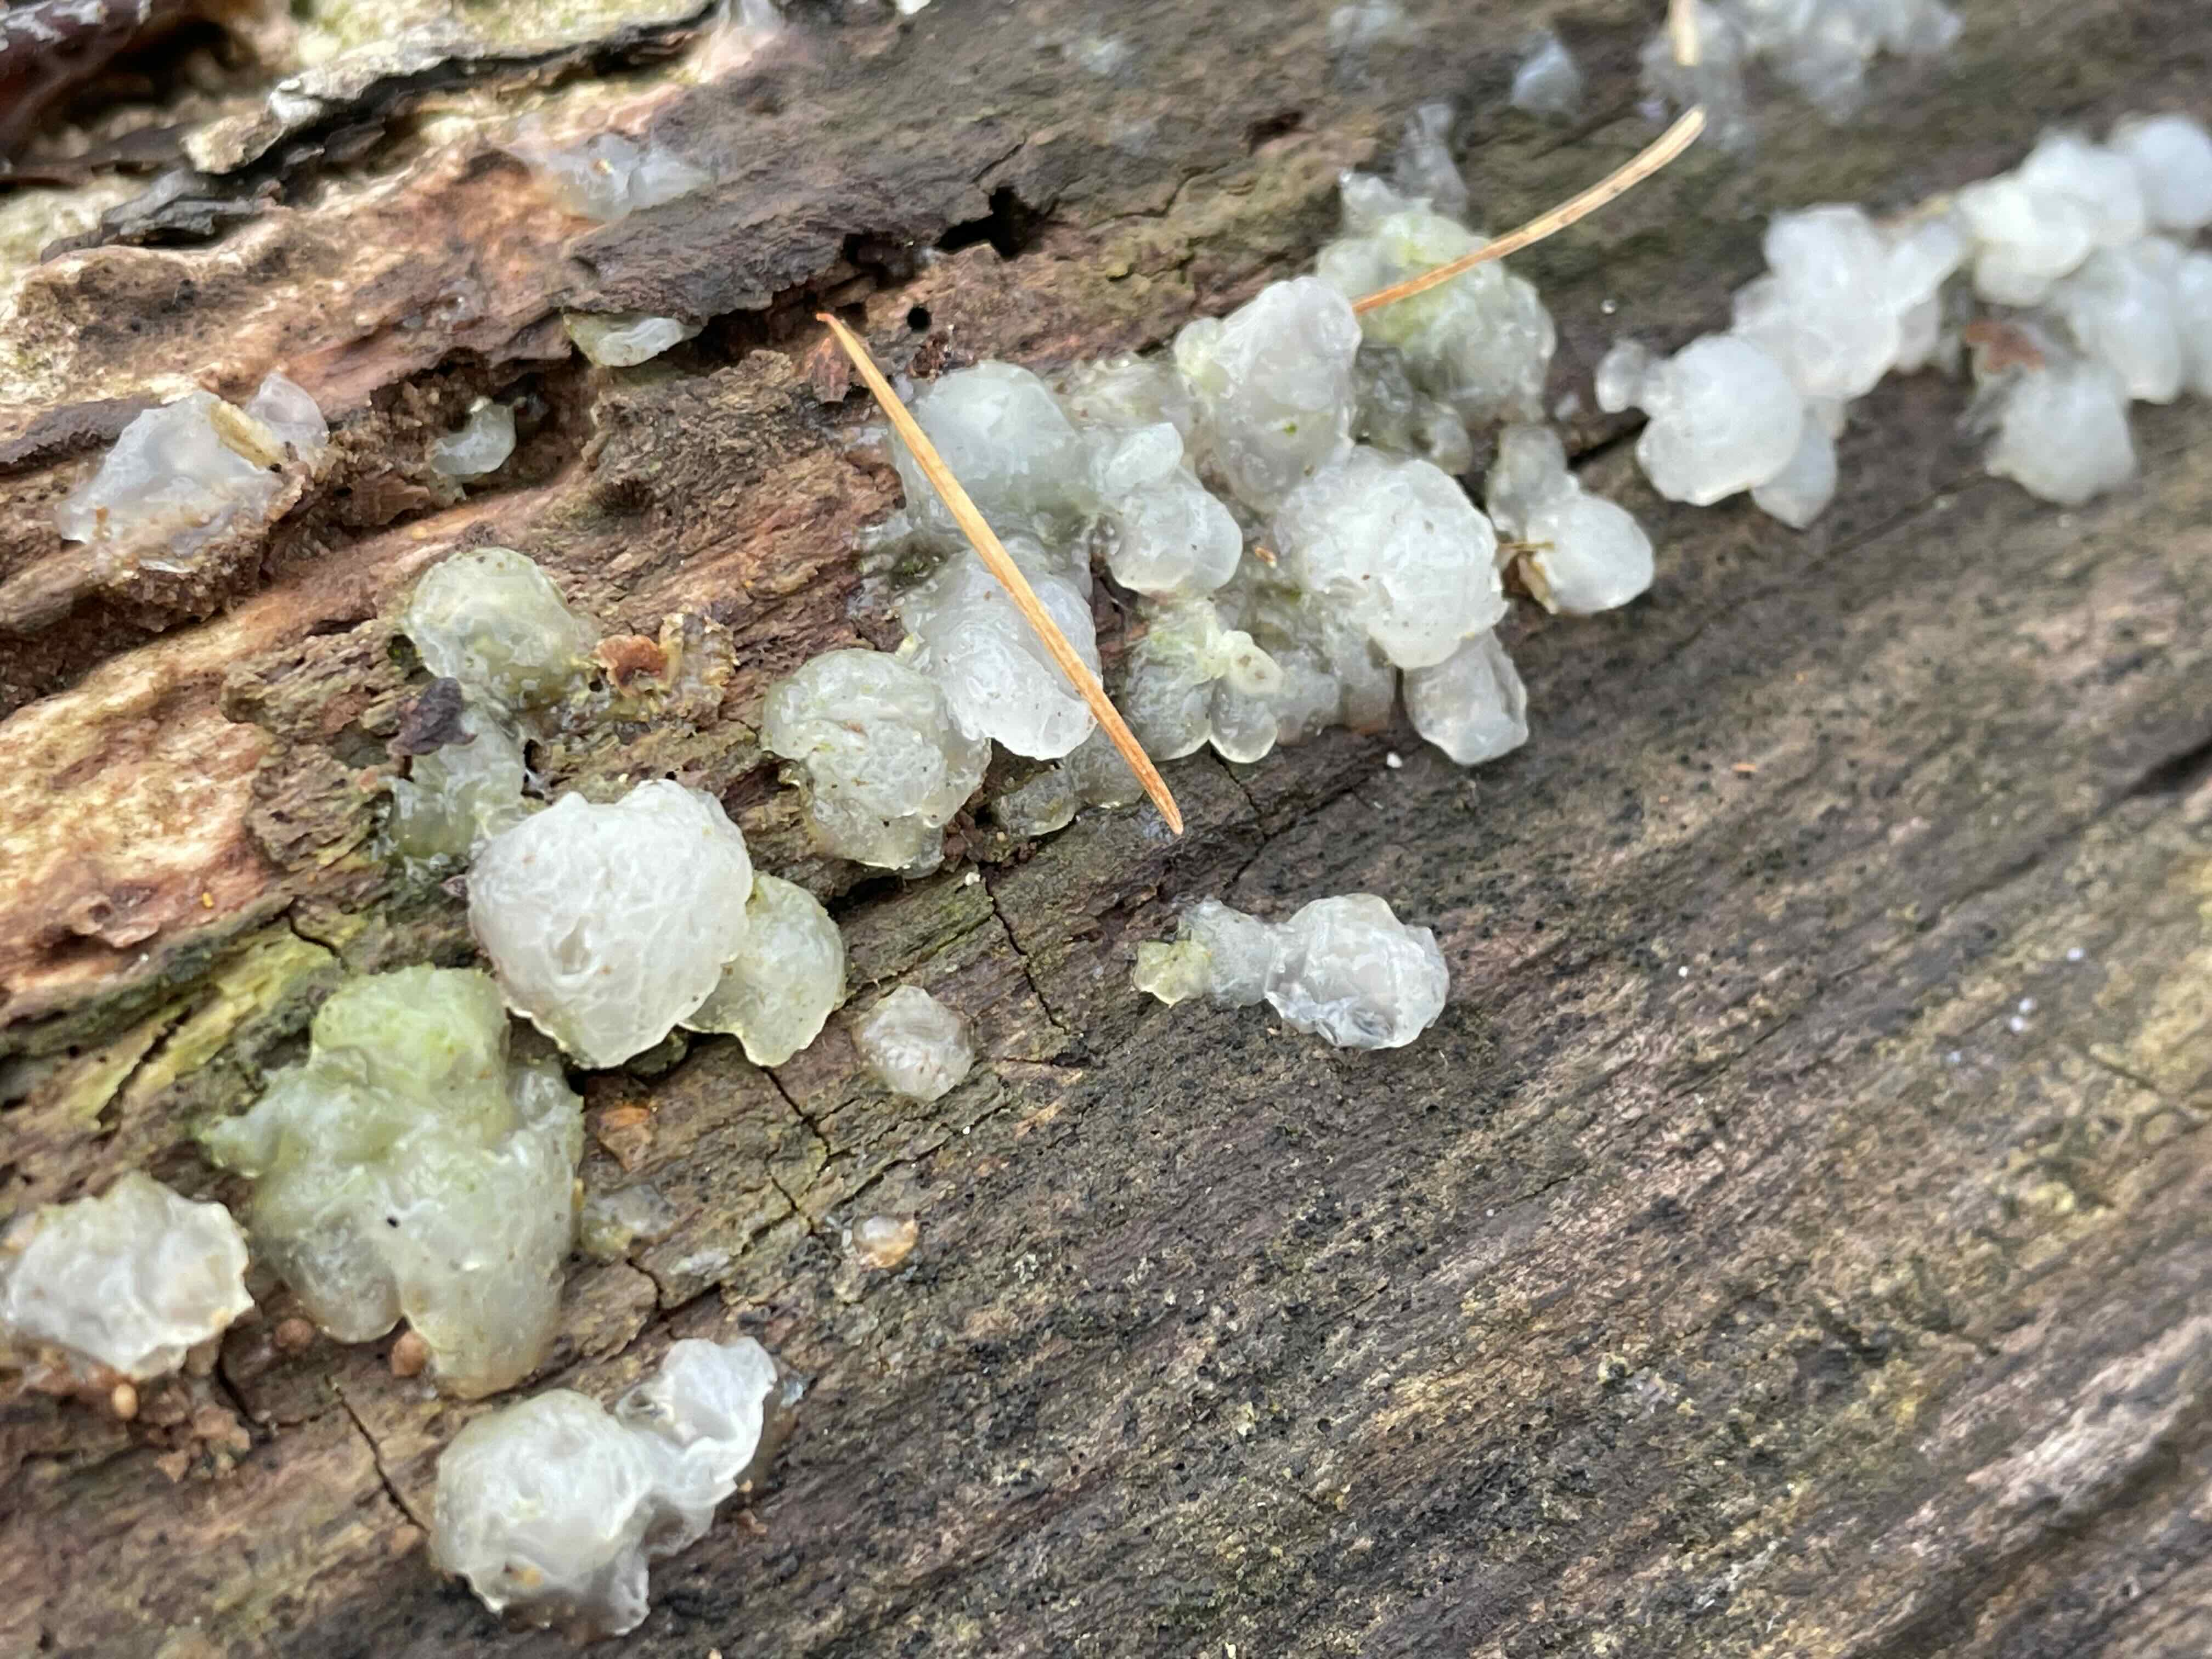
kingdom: Fungi
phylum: Basidiomycota
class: Agaricomycetes
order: Auriculariales
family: Hyaloriaceae
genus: Myxarium
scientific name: Myxarium nucleatum
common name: klar bævretop
